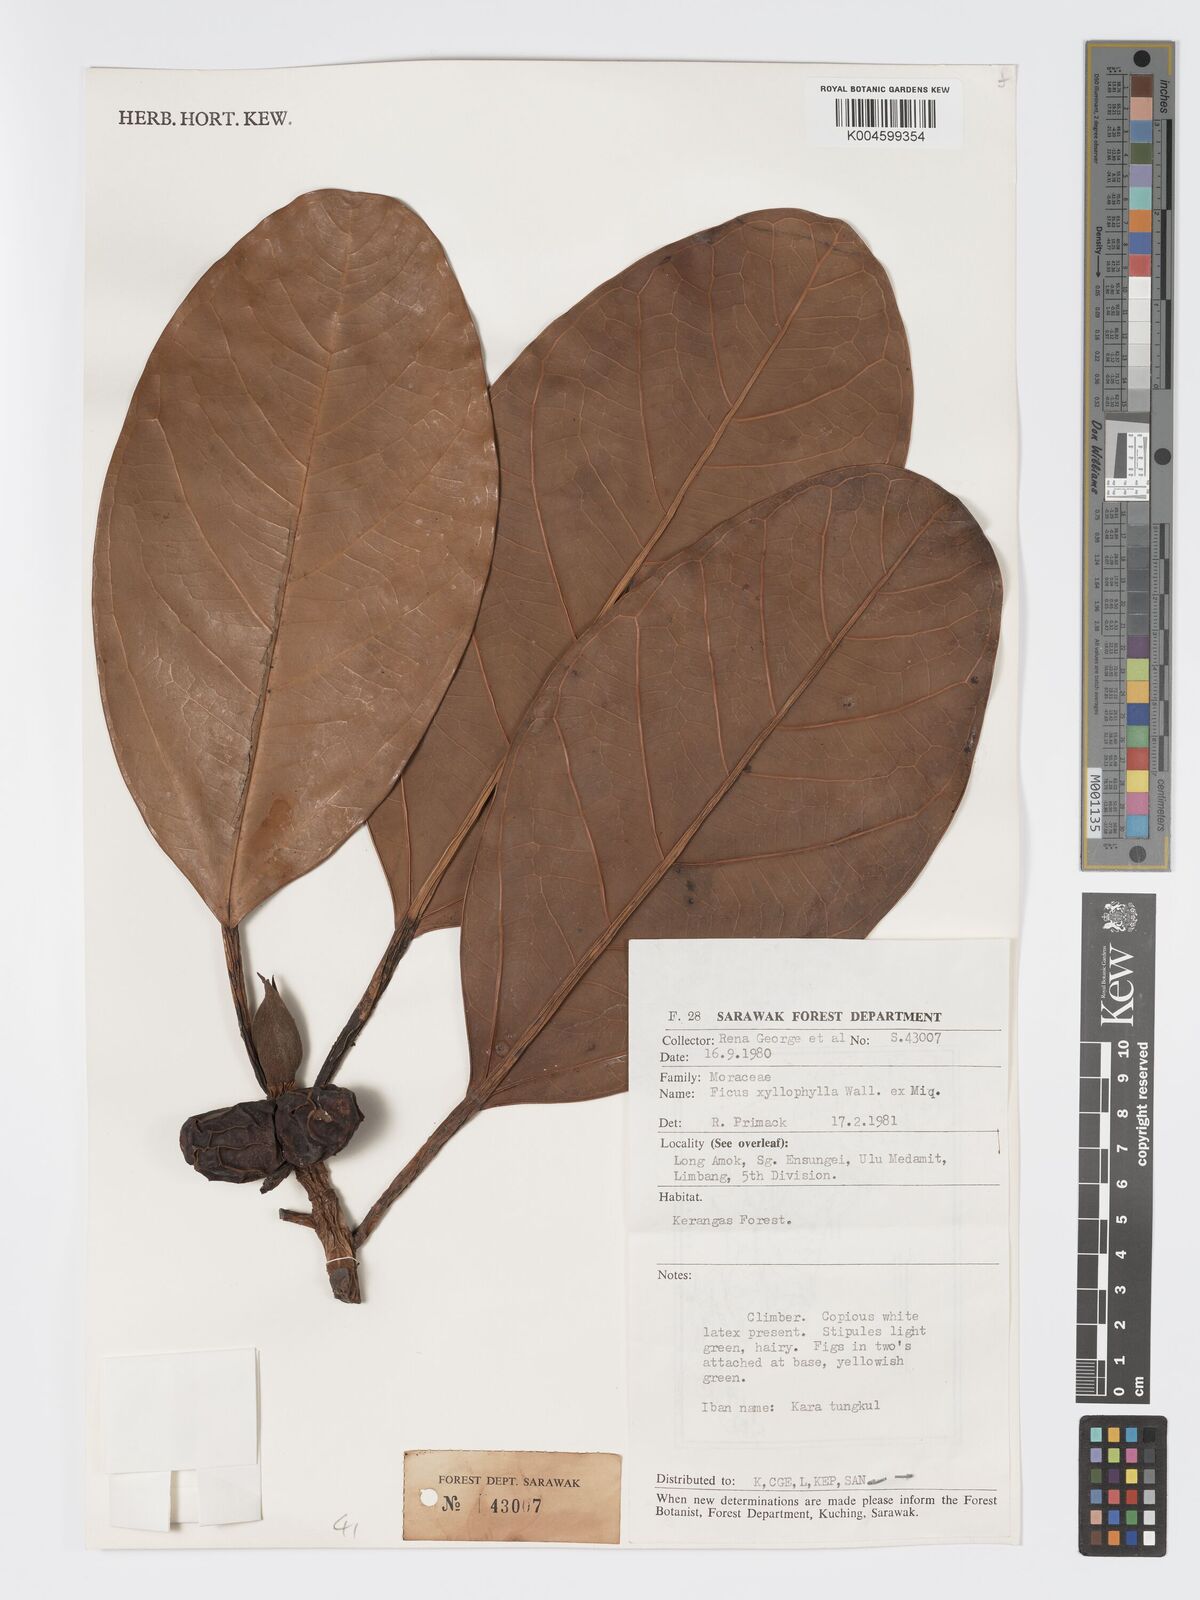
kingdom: Plantae
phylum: Tracheophyta
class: Magnoliopsida
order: Rosales
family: Moraceae
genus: Ficus
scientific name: Ficus xylophylla
